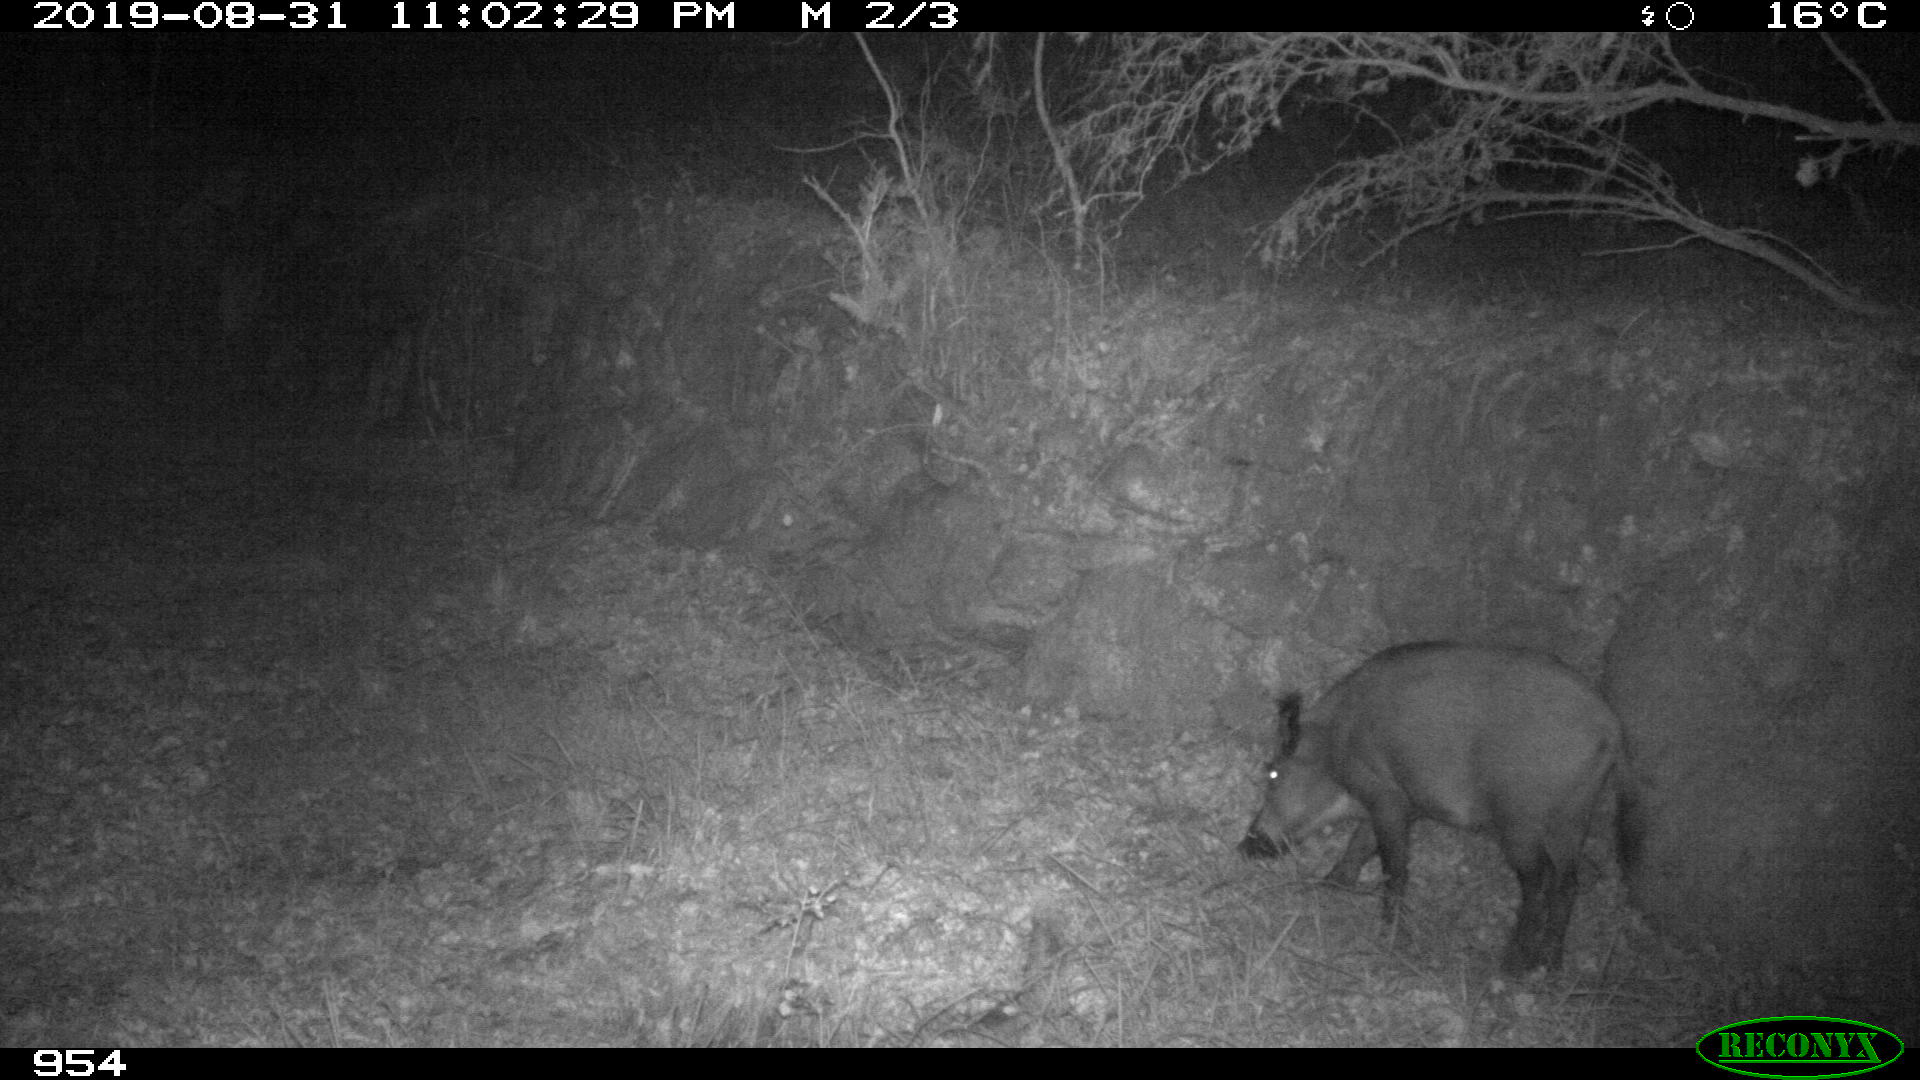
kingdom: Animalia
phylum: Chordata
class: Mammalia
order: Artiodactyla
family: Suidae
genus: Sus
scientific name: Sus scrofa
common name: Wild boar
